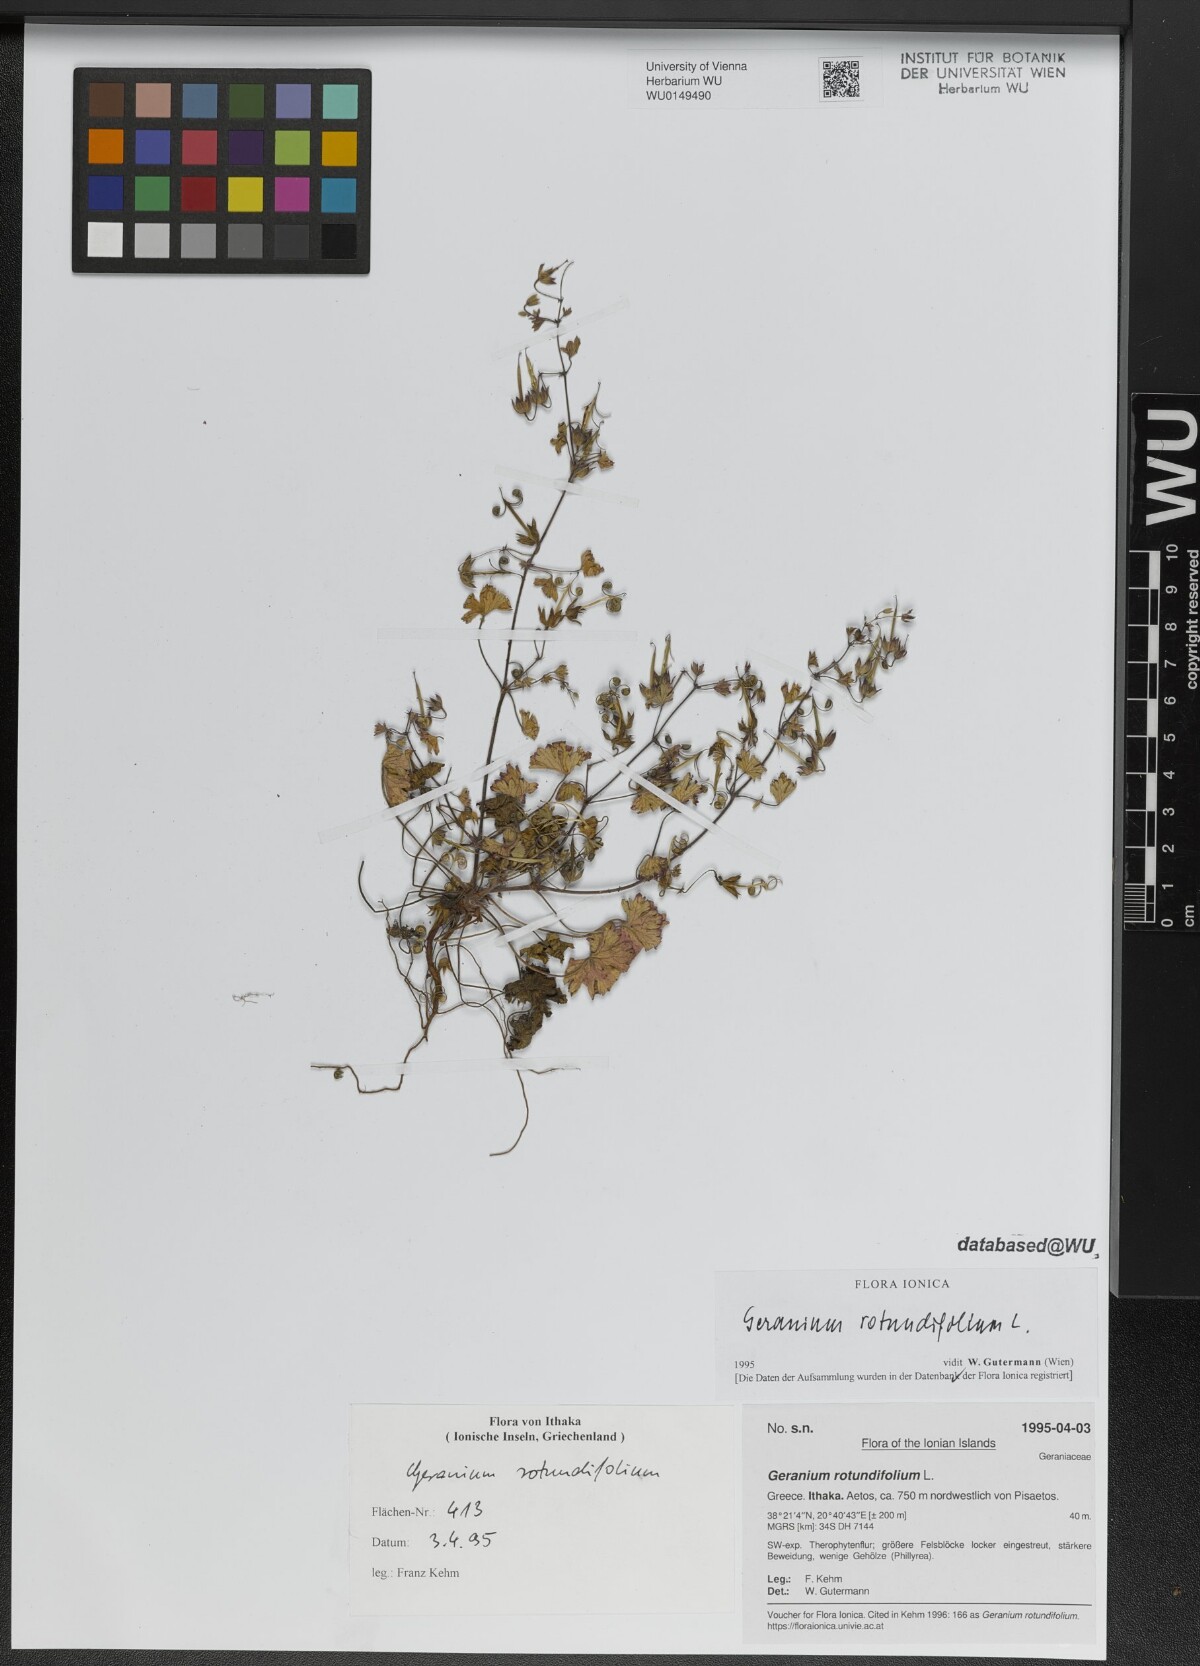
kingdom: Plantae
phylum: Tracheophyta
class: Magnoliopsida
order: Geraniales
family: Geraniaceae
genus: Geranium
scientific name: Geranium rotundifolium
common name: Round-leaved crane's-bill
